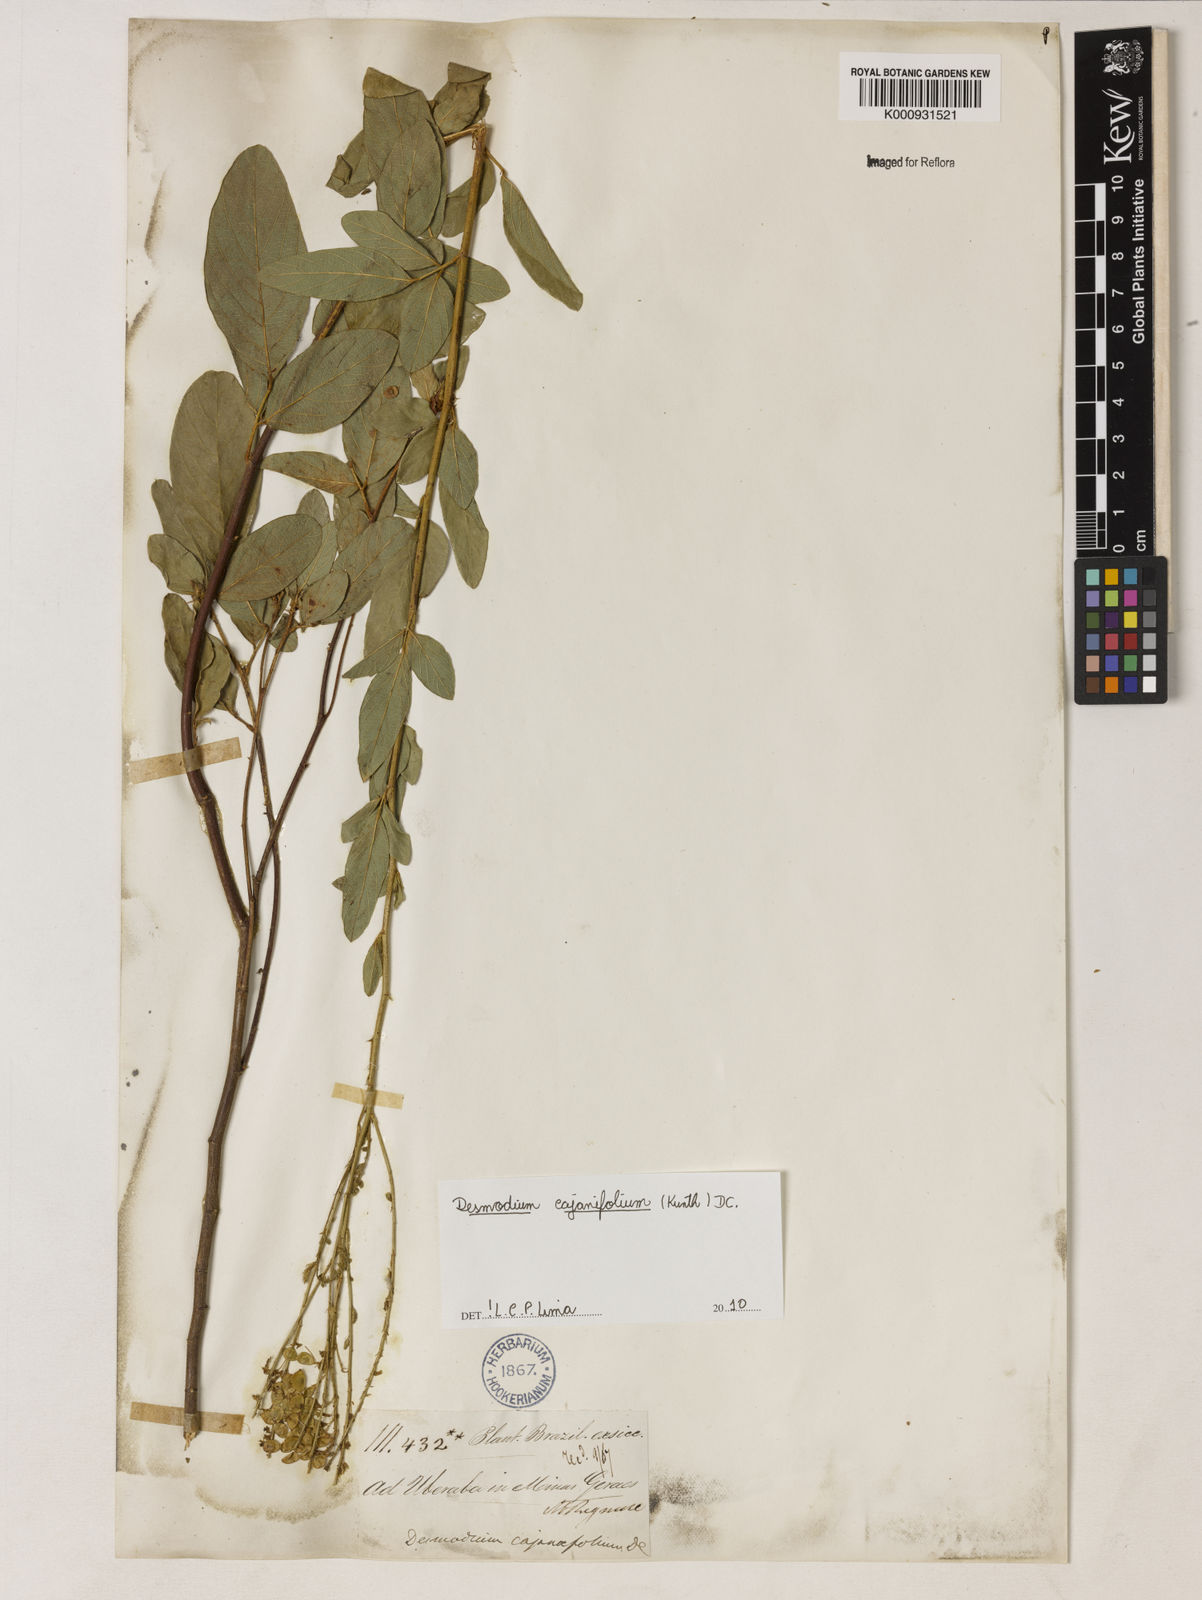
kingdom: Plantae
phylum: Tracheophyta
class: Magnoliopsida
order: Fabales
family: Fabaceae
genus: Desmodium
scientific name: Desmodium cajanifolium
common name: Tropical ticktrefoil
